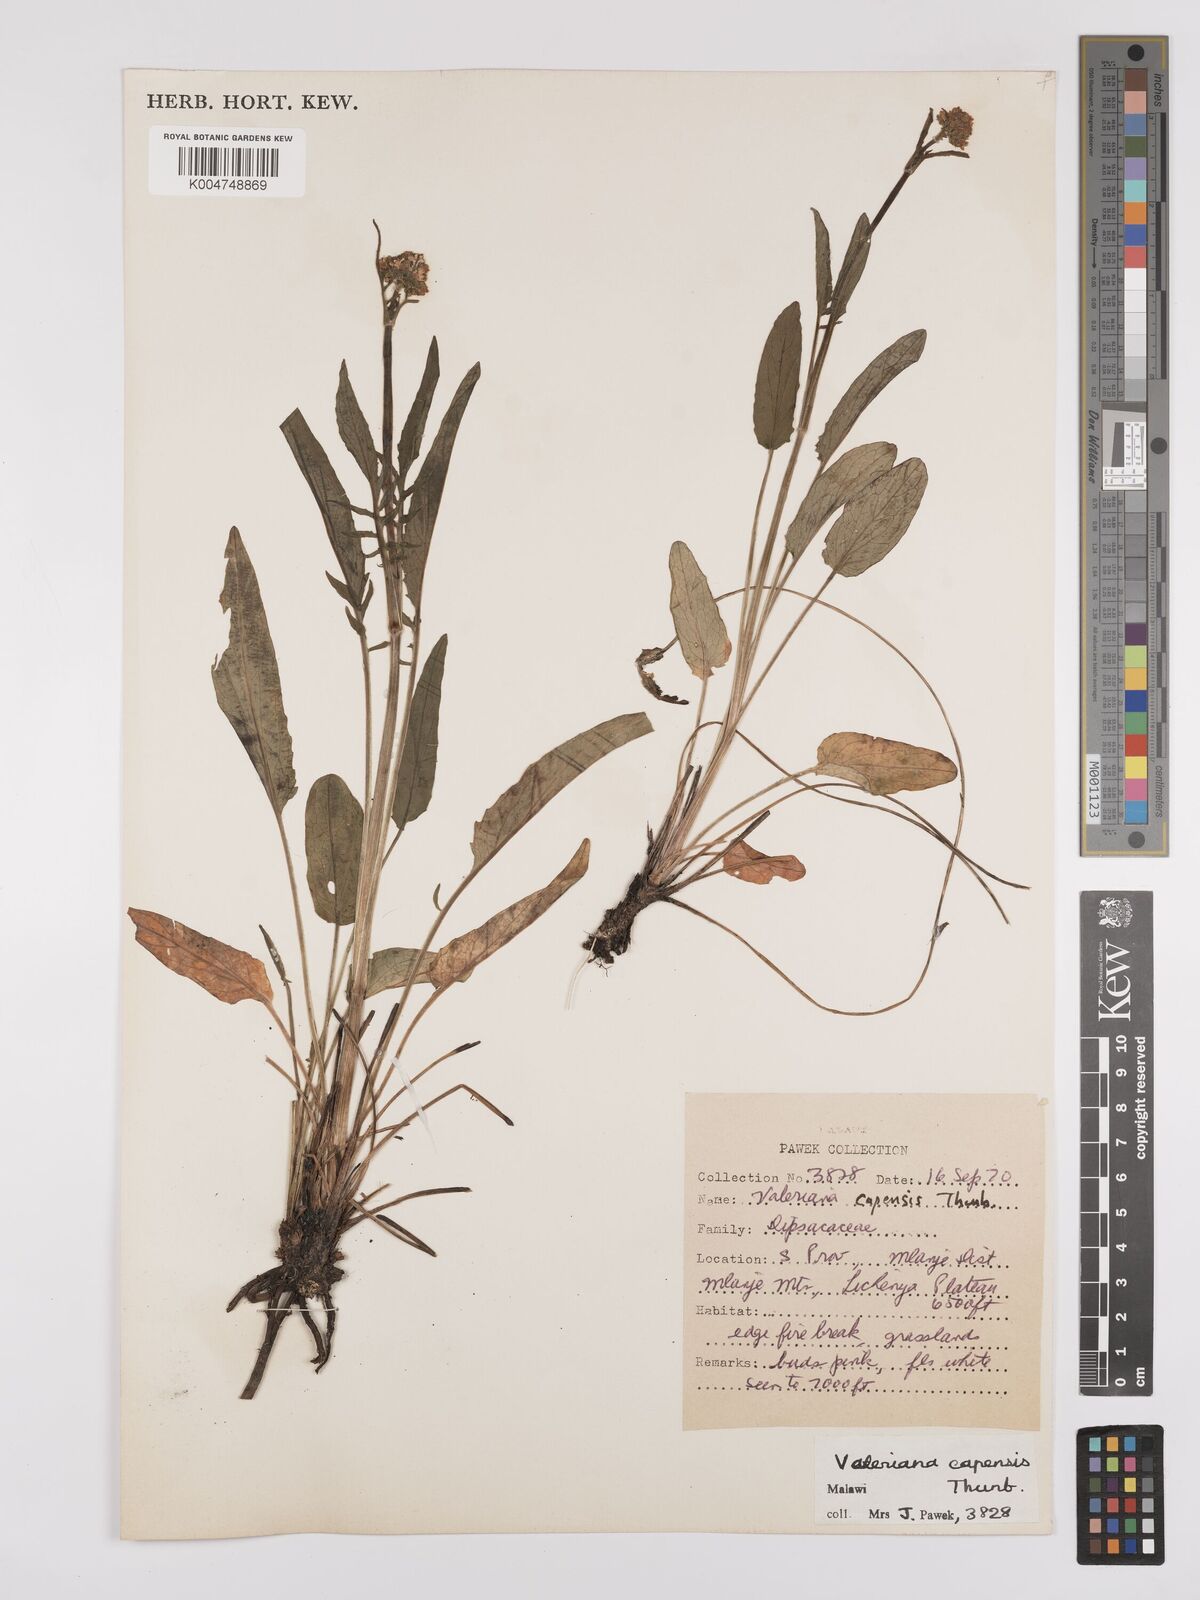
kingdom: Plantae
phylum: Tracheophyta
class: Magnoliopsida
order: Dipsacales
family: Caprifoliaceae
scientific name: Caprifoliaceae
